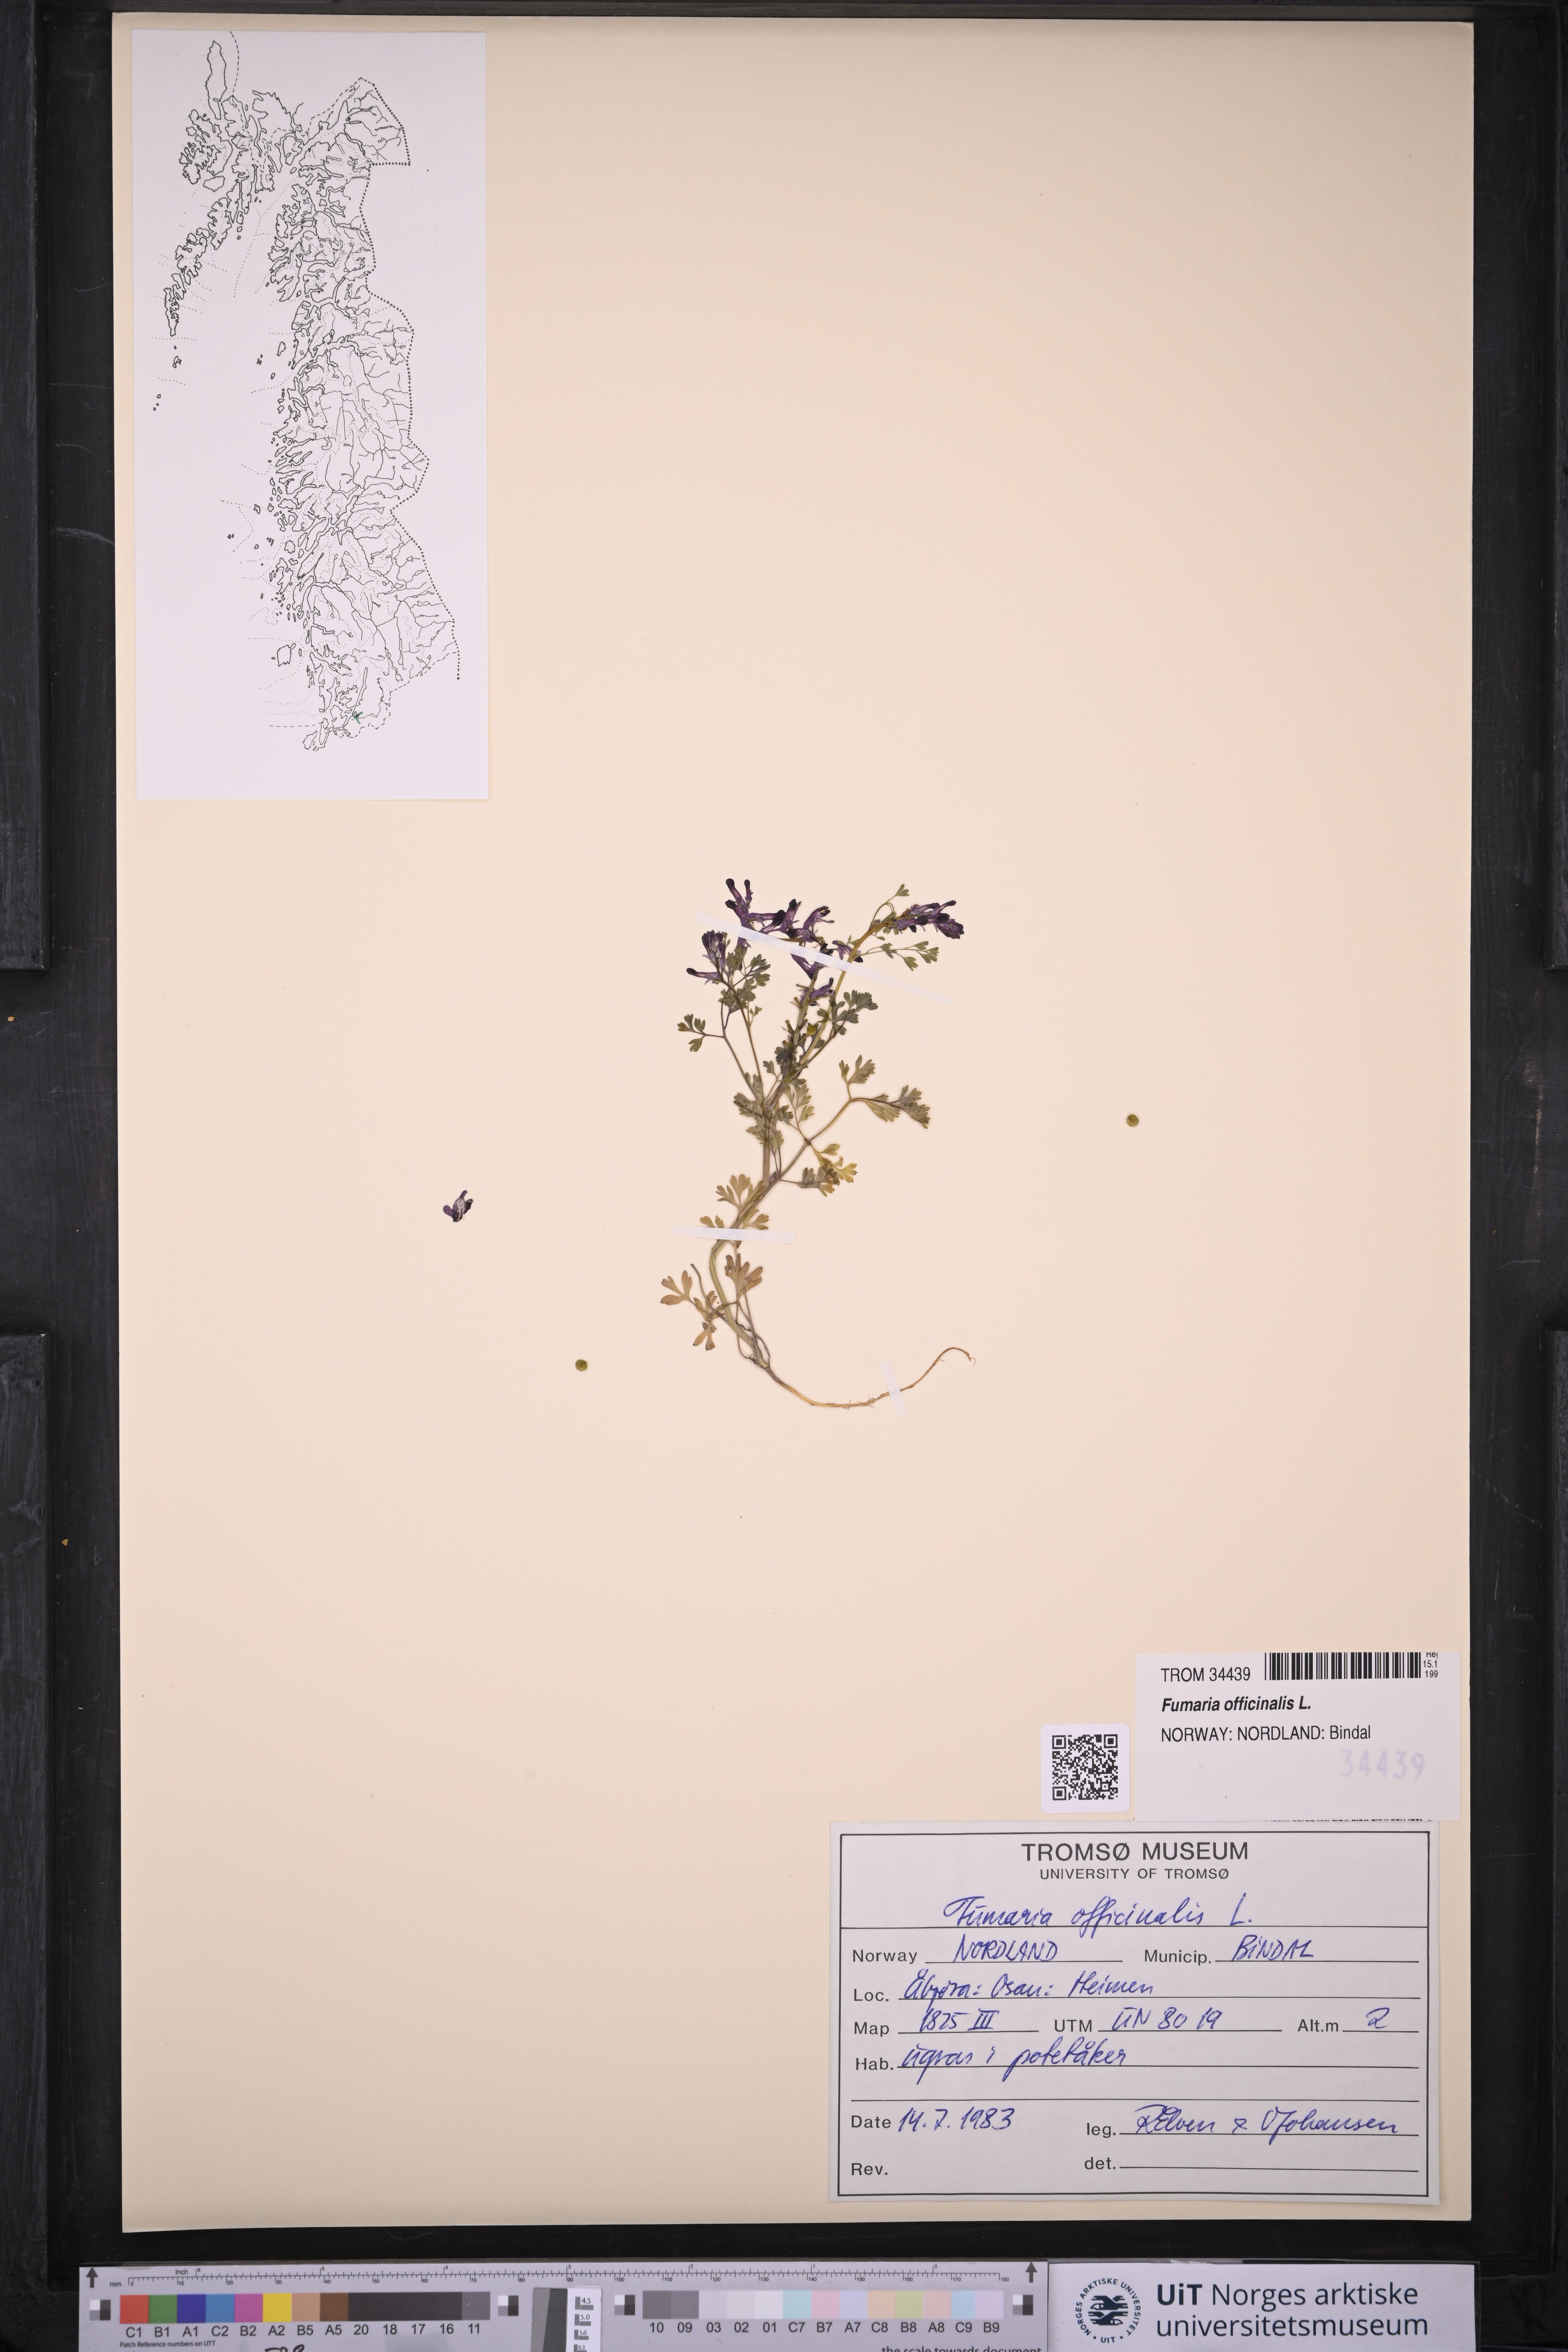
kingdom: Plantae
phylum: Tracheophyta
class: Magnoliopsida
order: Ranunculales
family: Papaveraceae
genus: Fumaria
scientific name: Fumaria officinalis
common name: Common fumitory
